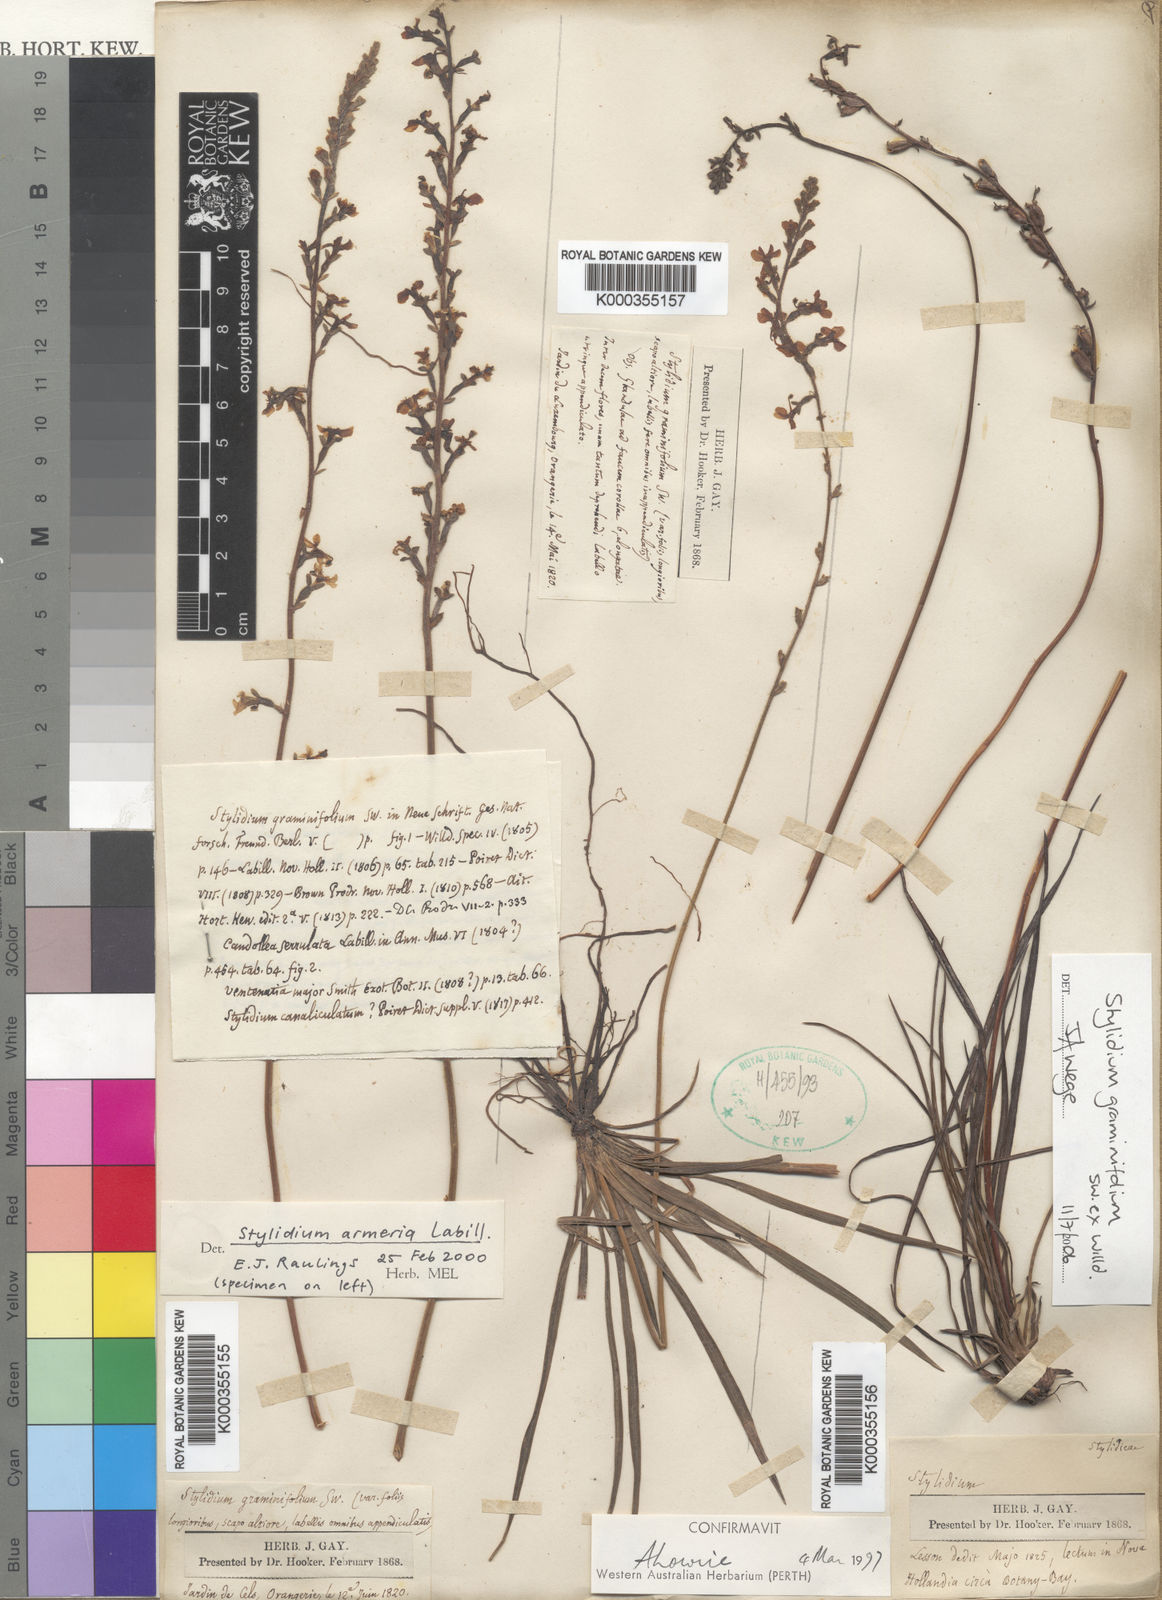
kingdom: Plantae
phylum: Tracheophyta
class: Magnoliopsida
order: Asterales
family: Stylidiaceae
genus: Stylidium
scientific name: Stylidium armeria
